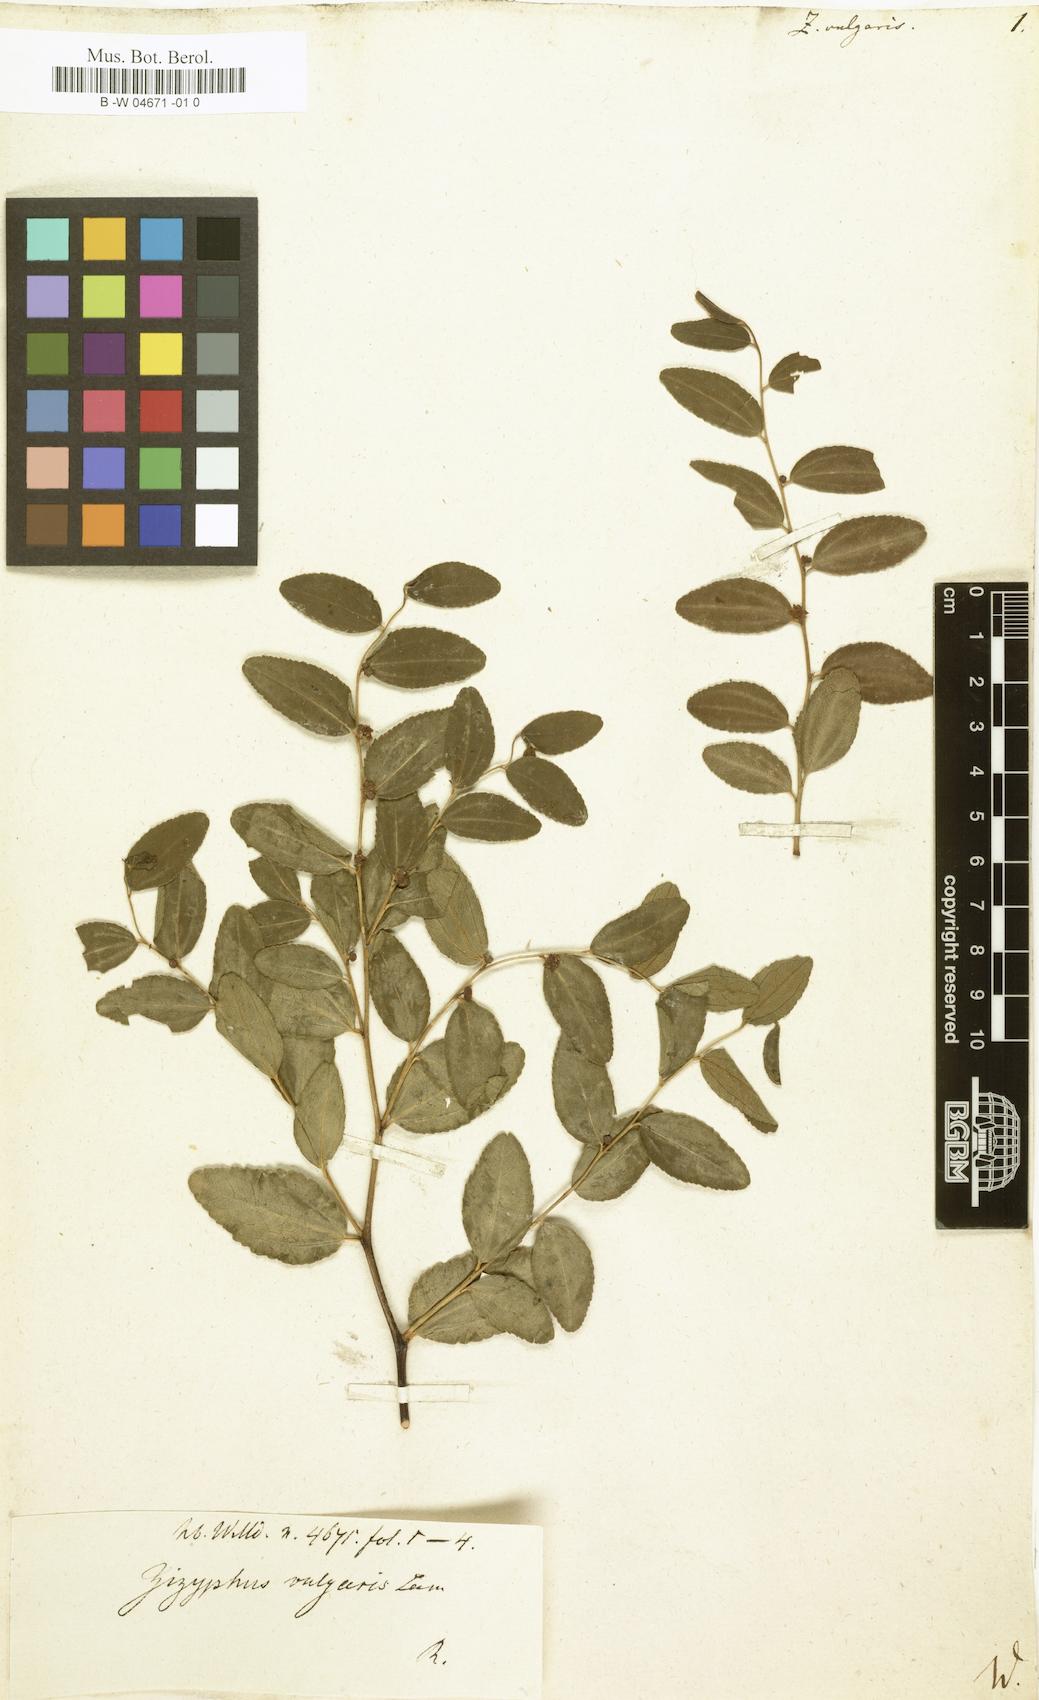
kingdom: Plantae
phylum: Tracheophyta
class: Magnoliopsida
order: Rosales
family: Rhamnaceae
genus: Ziziphus
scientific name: Ziziphus jujuba
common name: Jujube red date
